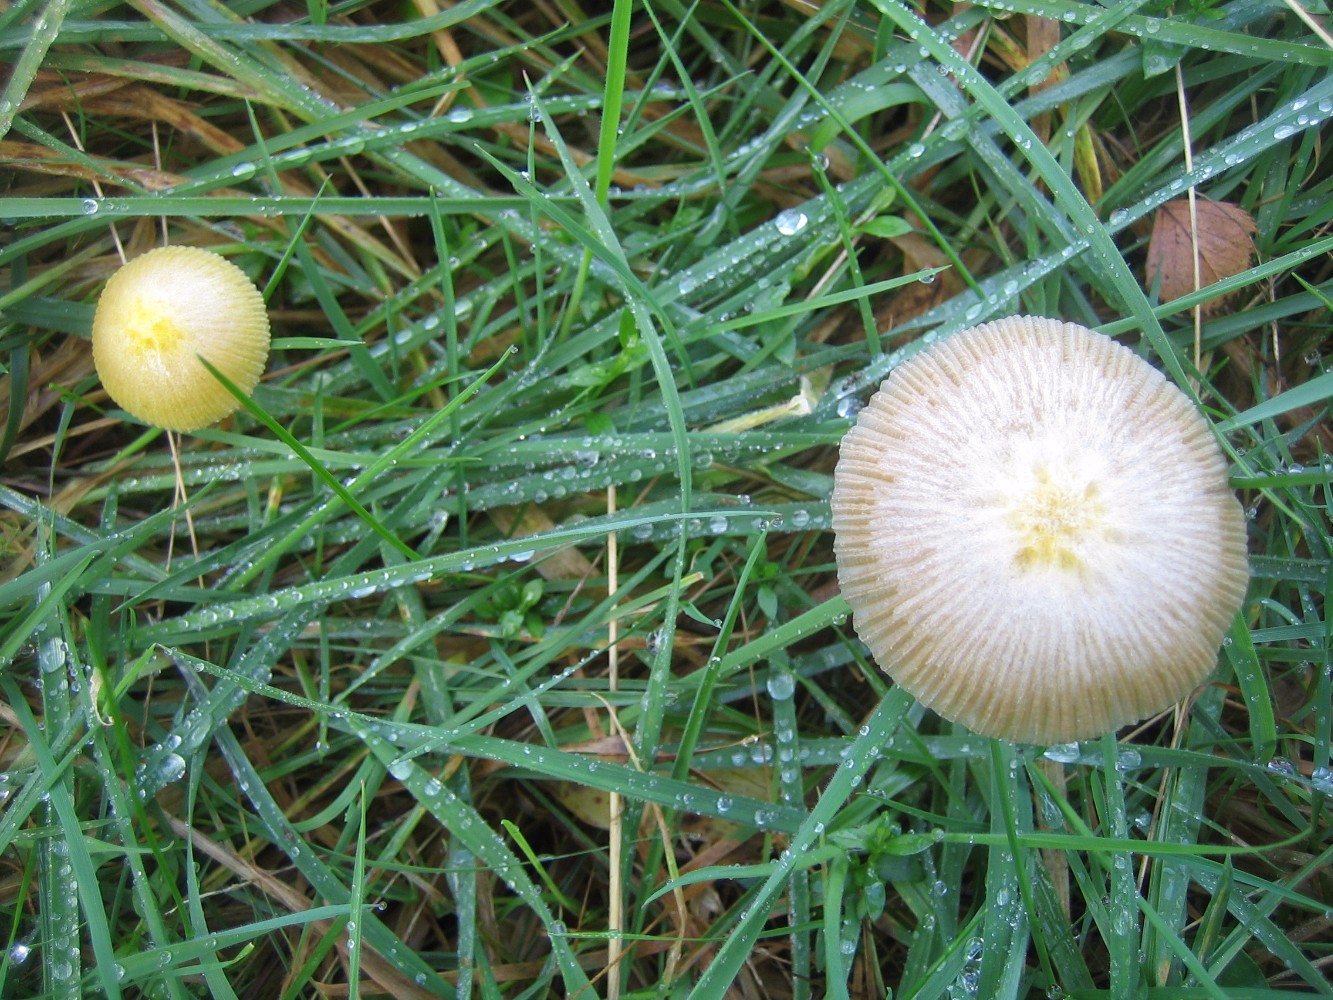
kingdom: Fungi
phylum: Basidiomycota
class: Agaricomycetes
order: Agaricales
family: Bolbitiaceae
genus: Bolbitius
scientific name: Bolbitius titubans
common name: almindelig gulhat
